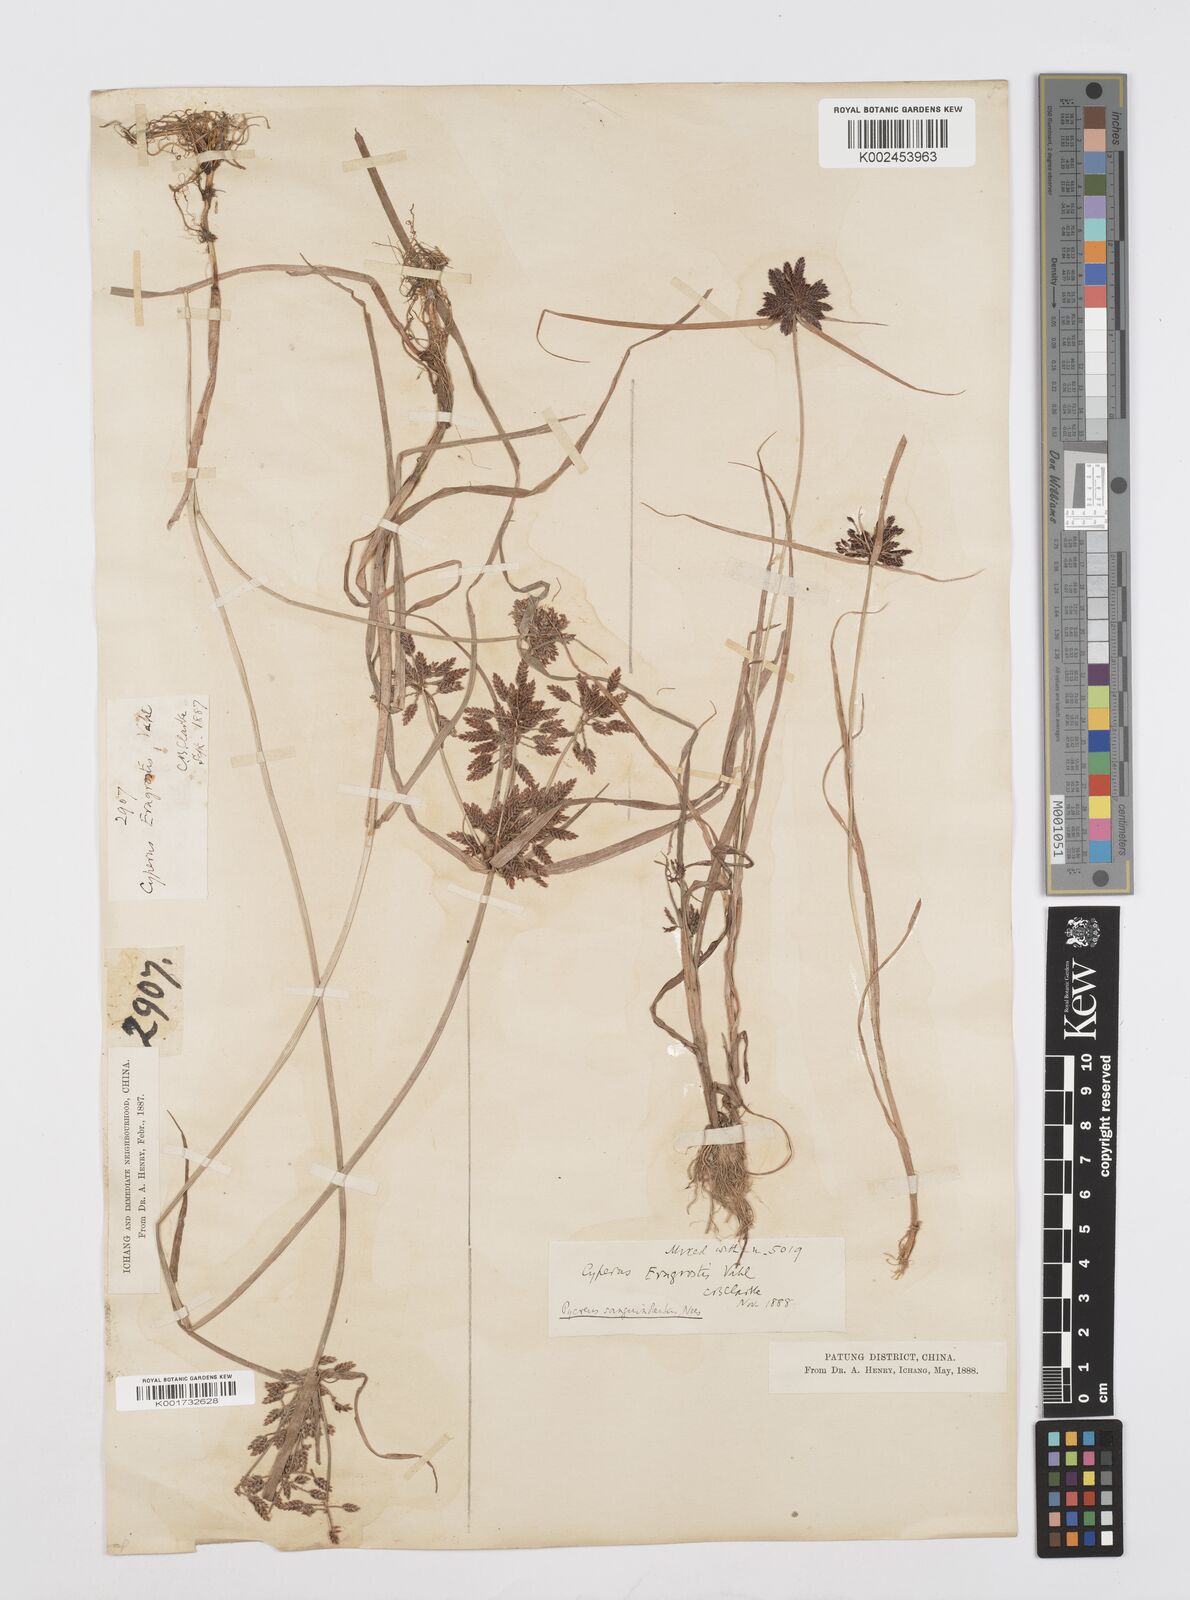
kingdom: Plantae
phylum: Tracheophyta
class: Liliopsida
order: Poales
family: Cyperaceae
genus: Cyperus
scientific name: Cyperus sanguinolentus
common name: Purpleglume flatsedge
